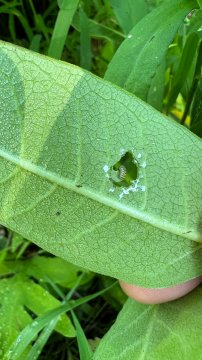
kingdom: Animalia
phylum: Arthropoda
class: Insecta
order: Lepidoptera
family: Nymphalidae
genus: Danaus
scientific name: Danaus plexippus
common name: Monarch
